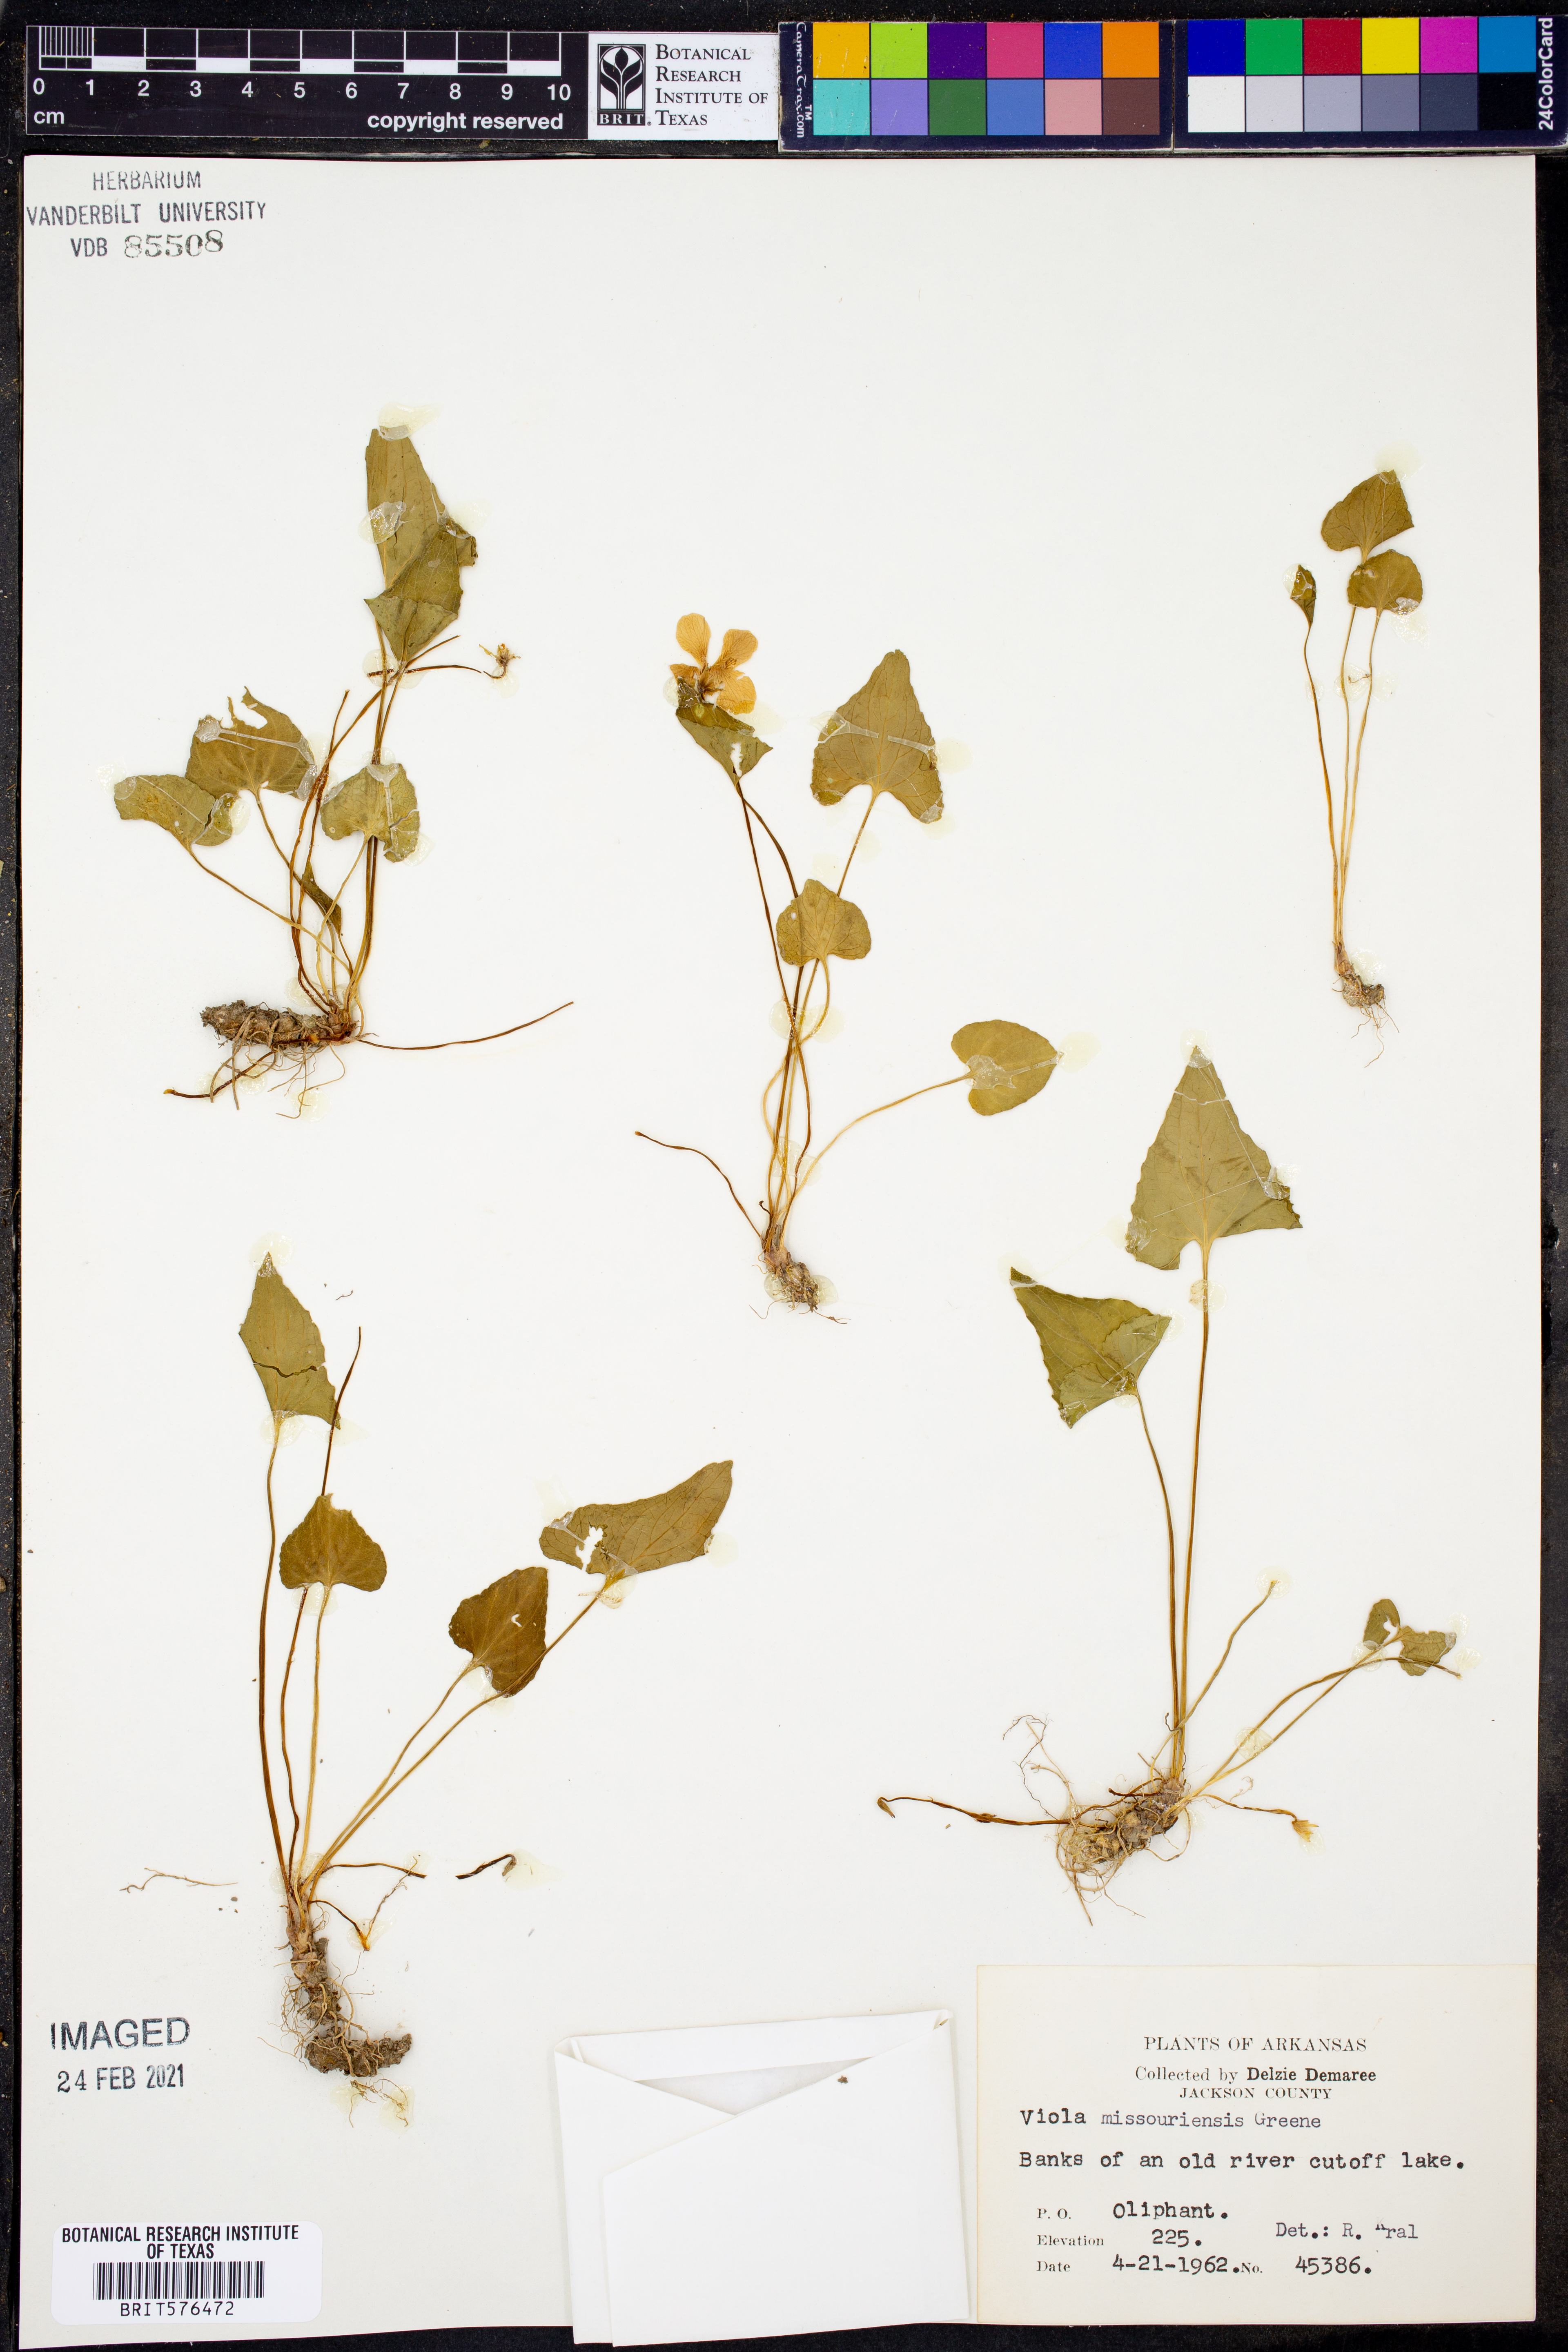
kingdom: Plantae
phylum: Tracheophyta
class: Magnoliopsida
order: Malpighiales
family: Violaceae
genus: Viola
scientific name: Viola missouriensis
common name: Missouri violet
